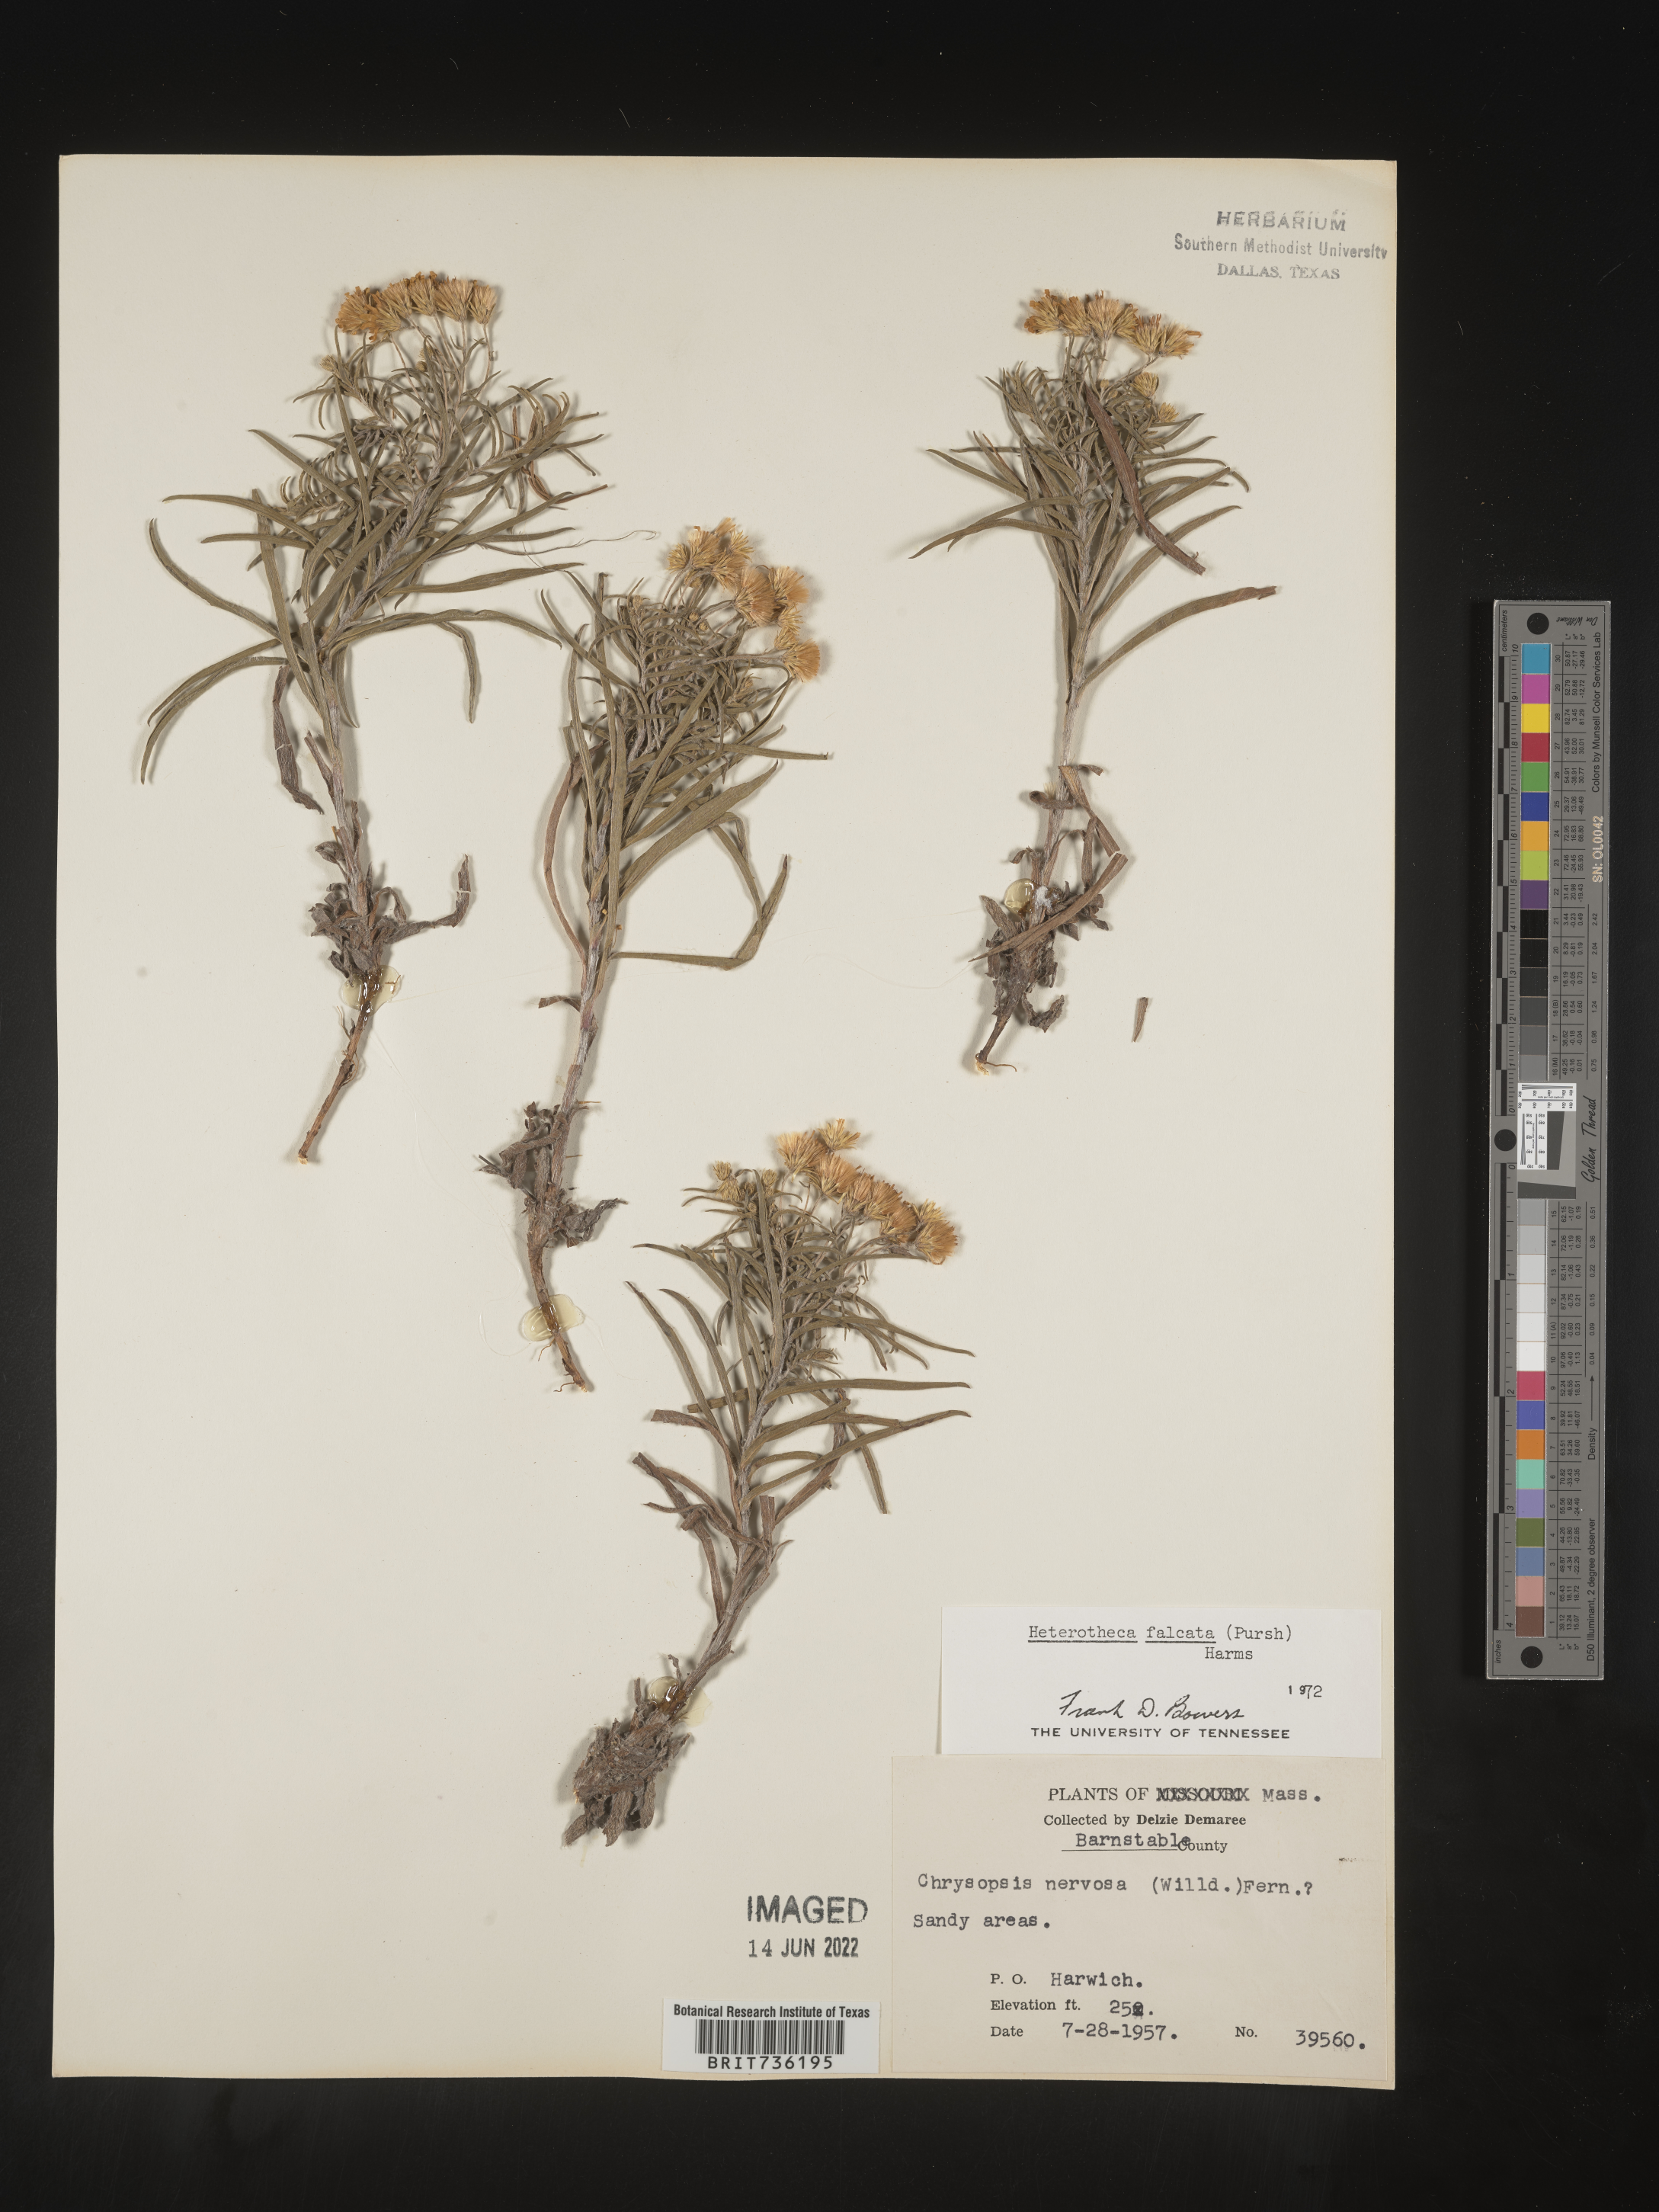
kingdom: Plantae
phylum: Tracheophyta
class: Magnoliopsida
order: Asterales
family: Asteraceae
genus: Pityopsis
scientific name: Pityopsis falcata
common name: Sickle-leaved goldenaster
